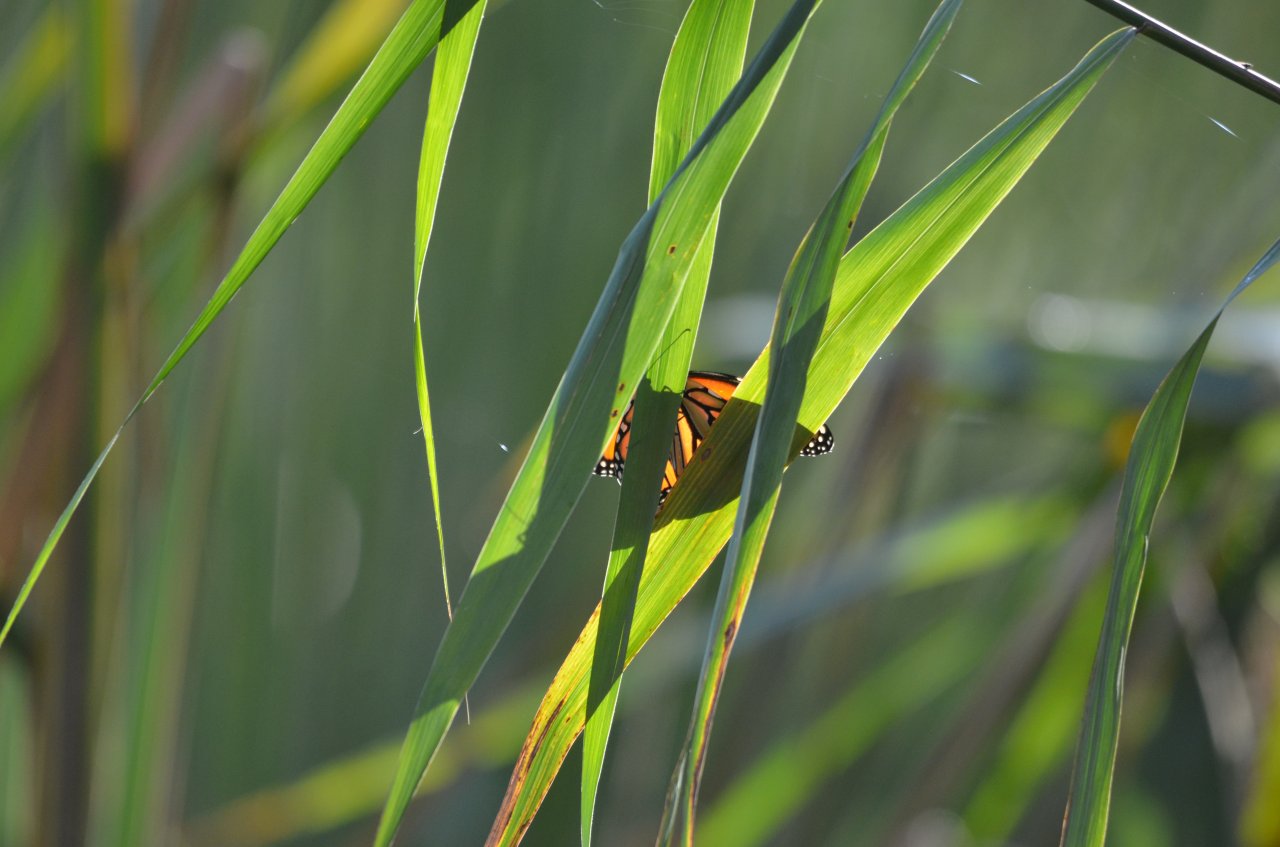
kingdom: Animalia
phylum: Arthropoda
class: Insecta
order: Lepidoptera
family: Nymphalidae
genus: Danaus
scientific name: Danaus plexippus
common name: Monarch
